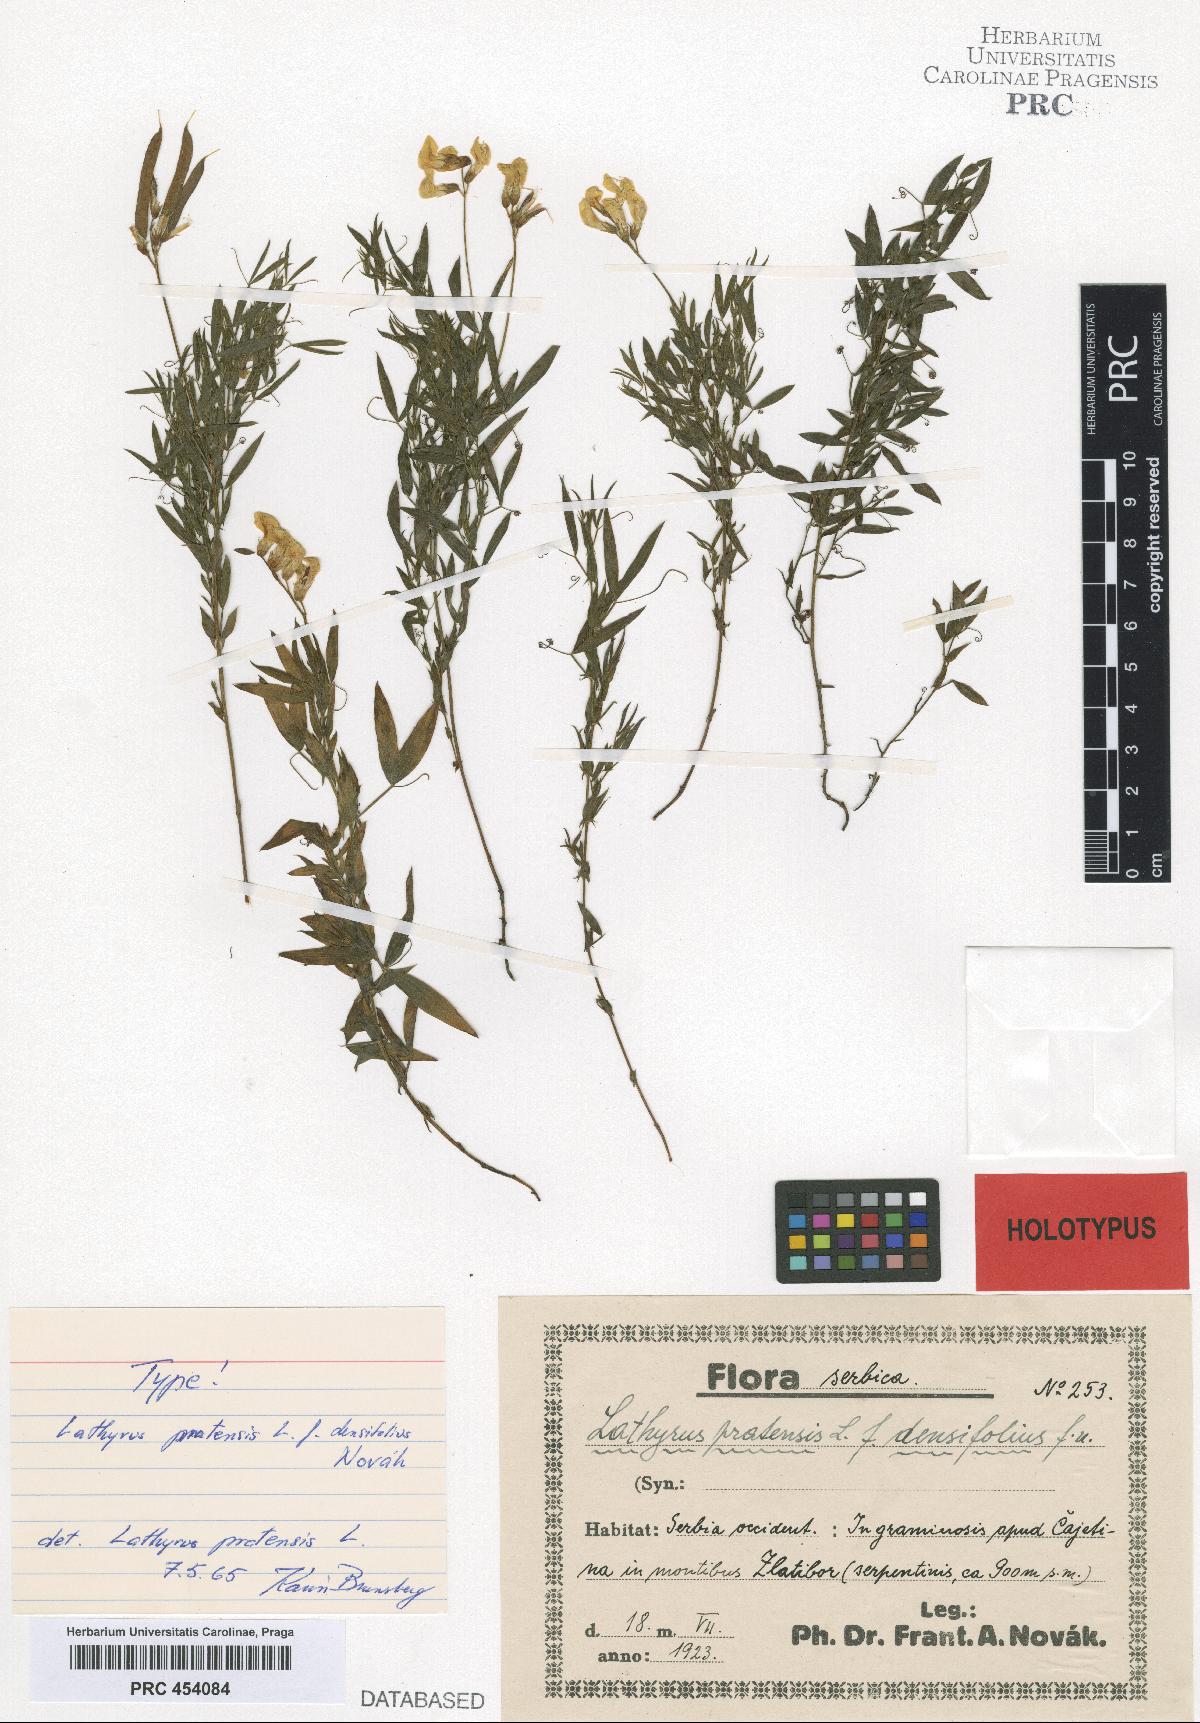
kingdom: Plantae
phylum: Tracheophyta
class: Magnoliopsida
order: Fabales
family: Fabaceae
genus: Lathyrus
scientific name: Lathyrus pratensis
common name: Meadow vetchling
